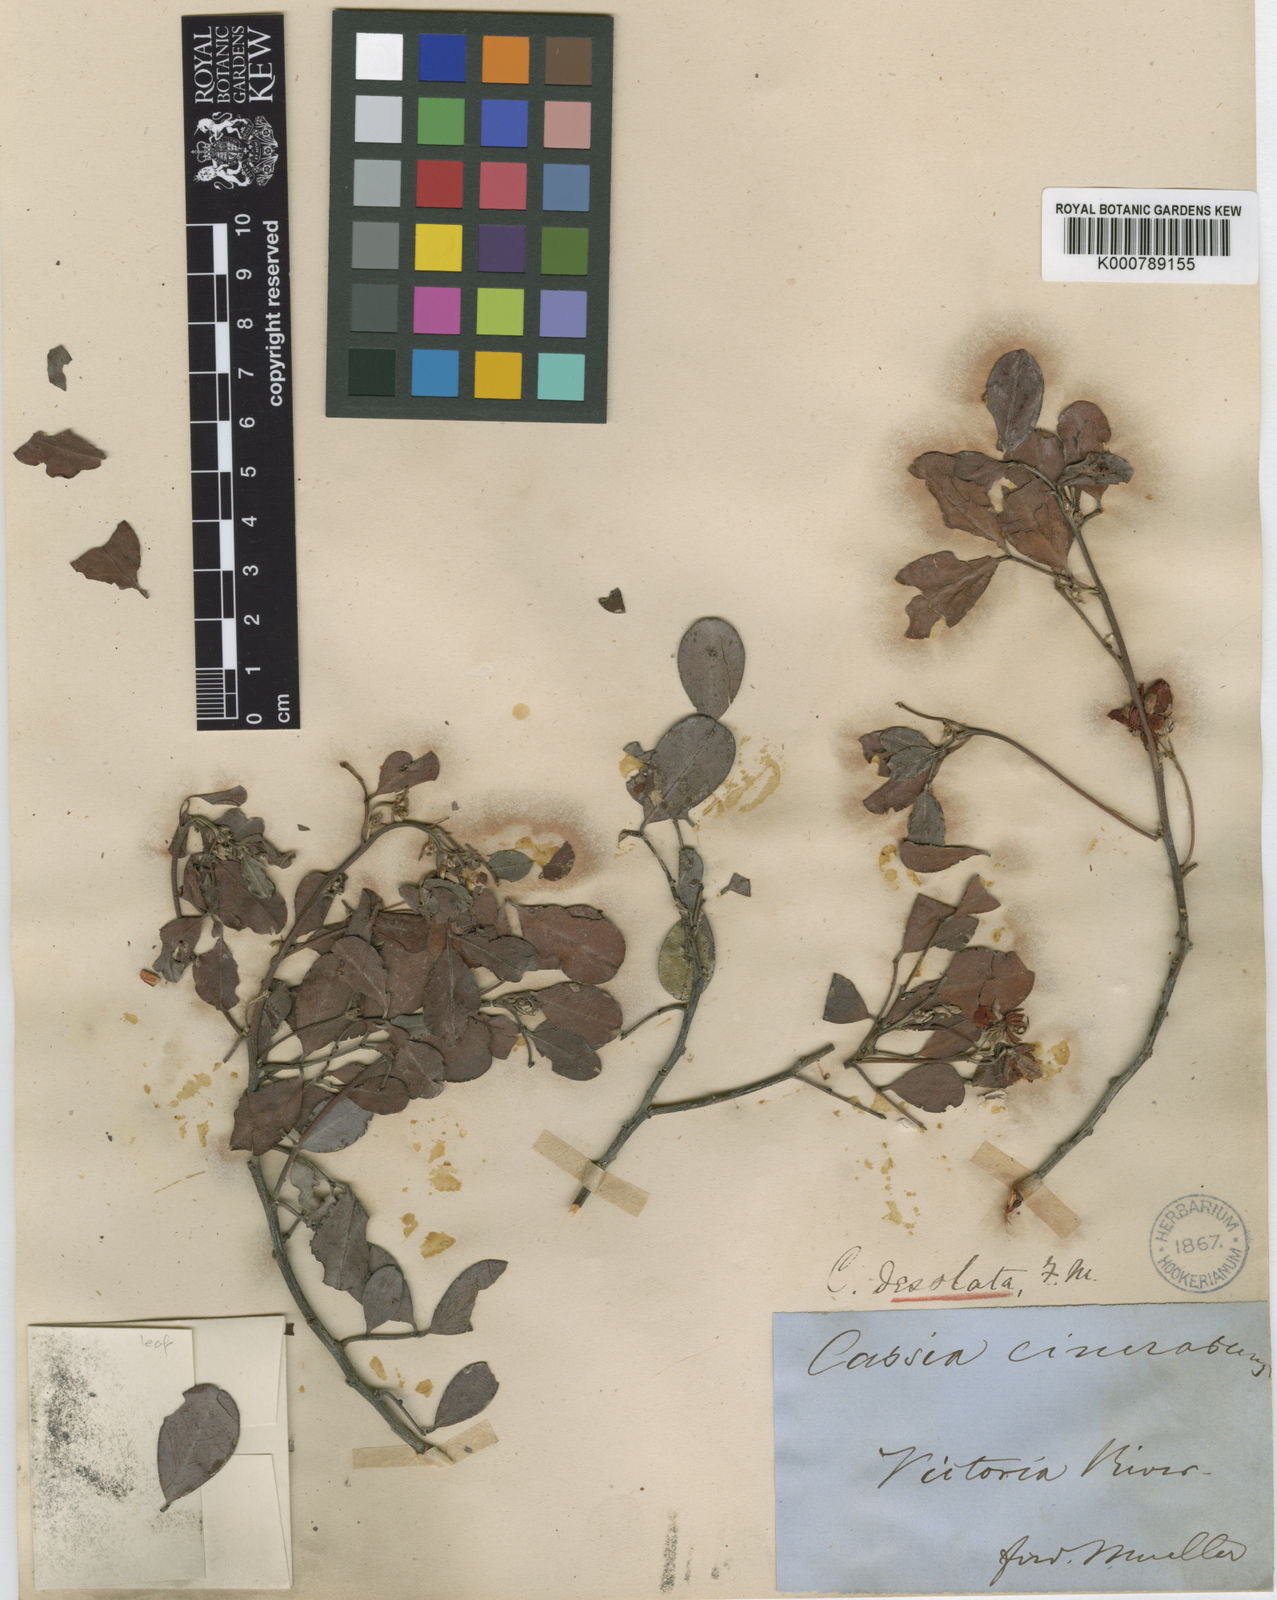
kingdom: Plantae
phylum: Tracheophyta
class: Magnoliopsida
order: Fabales
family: Fabaceae
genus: Senna
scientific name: Senna
